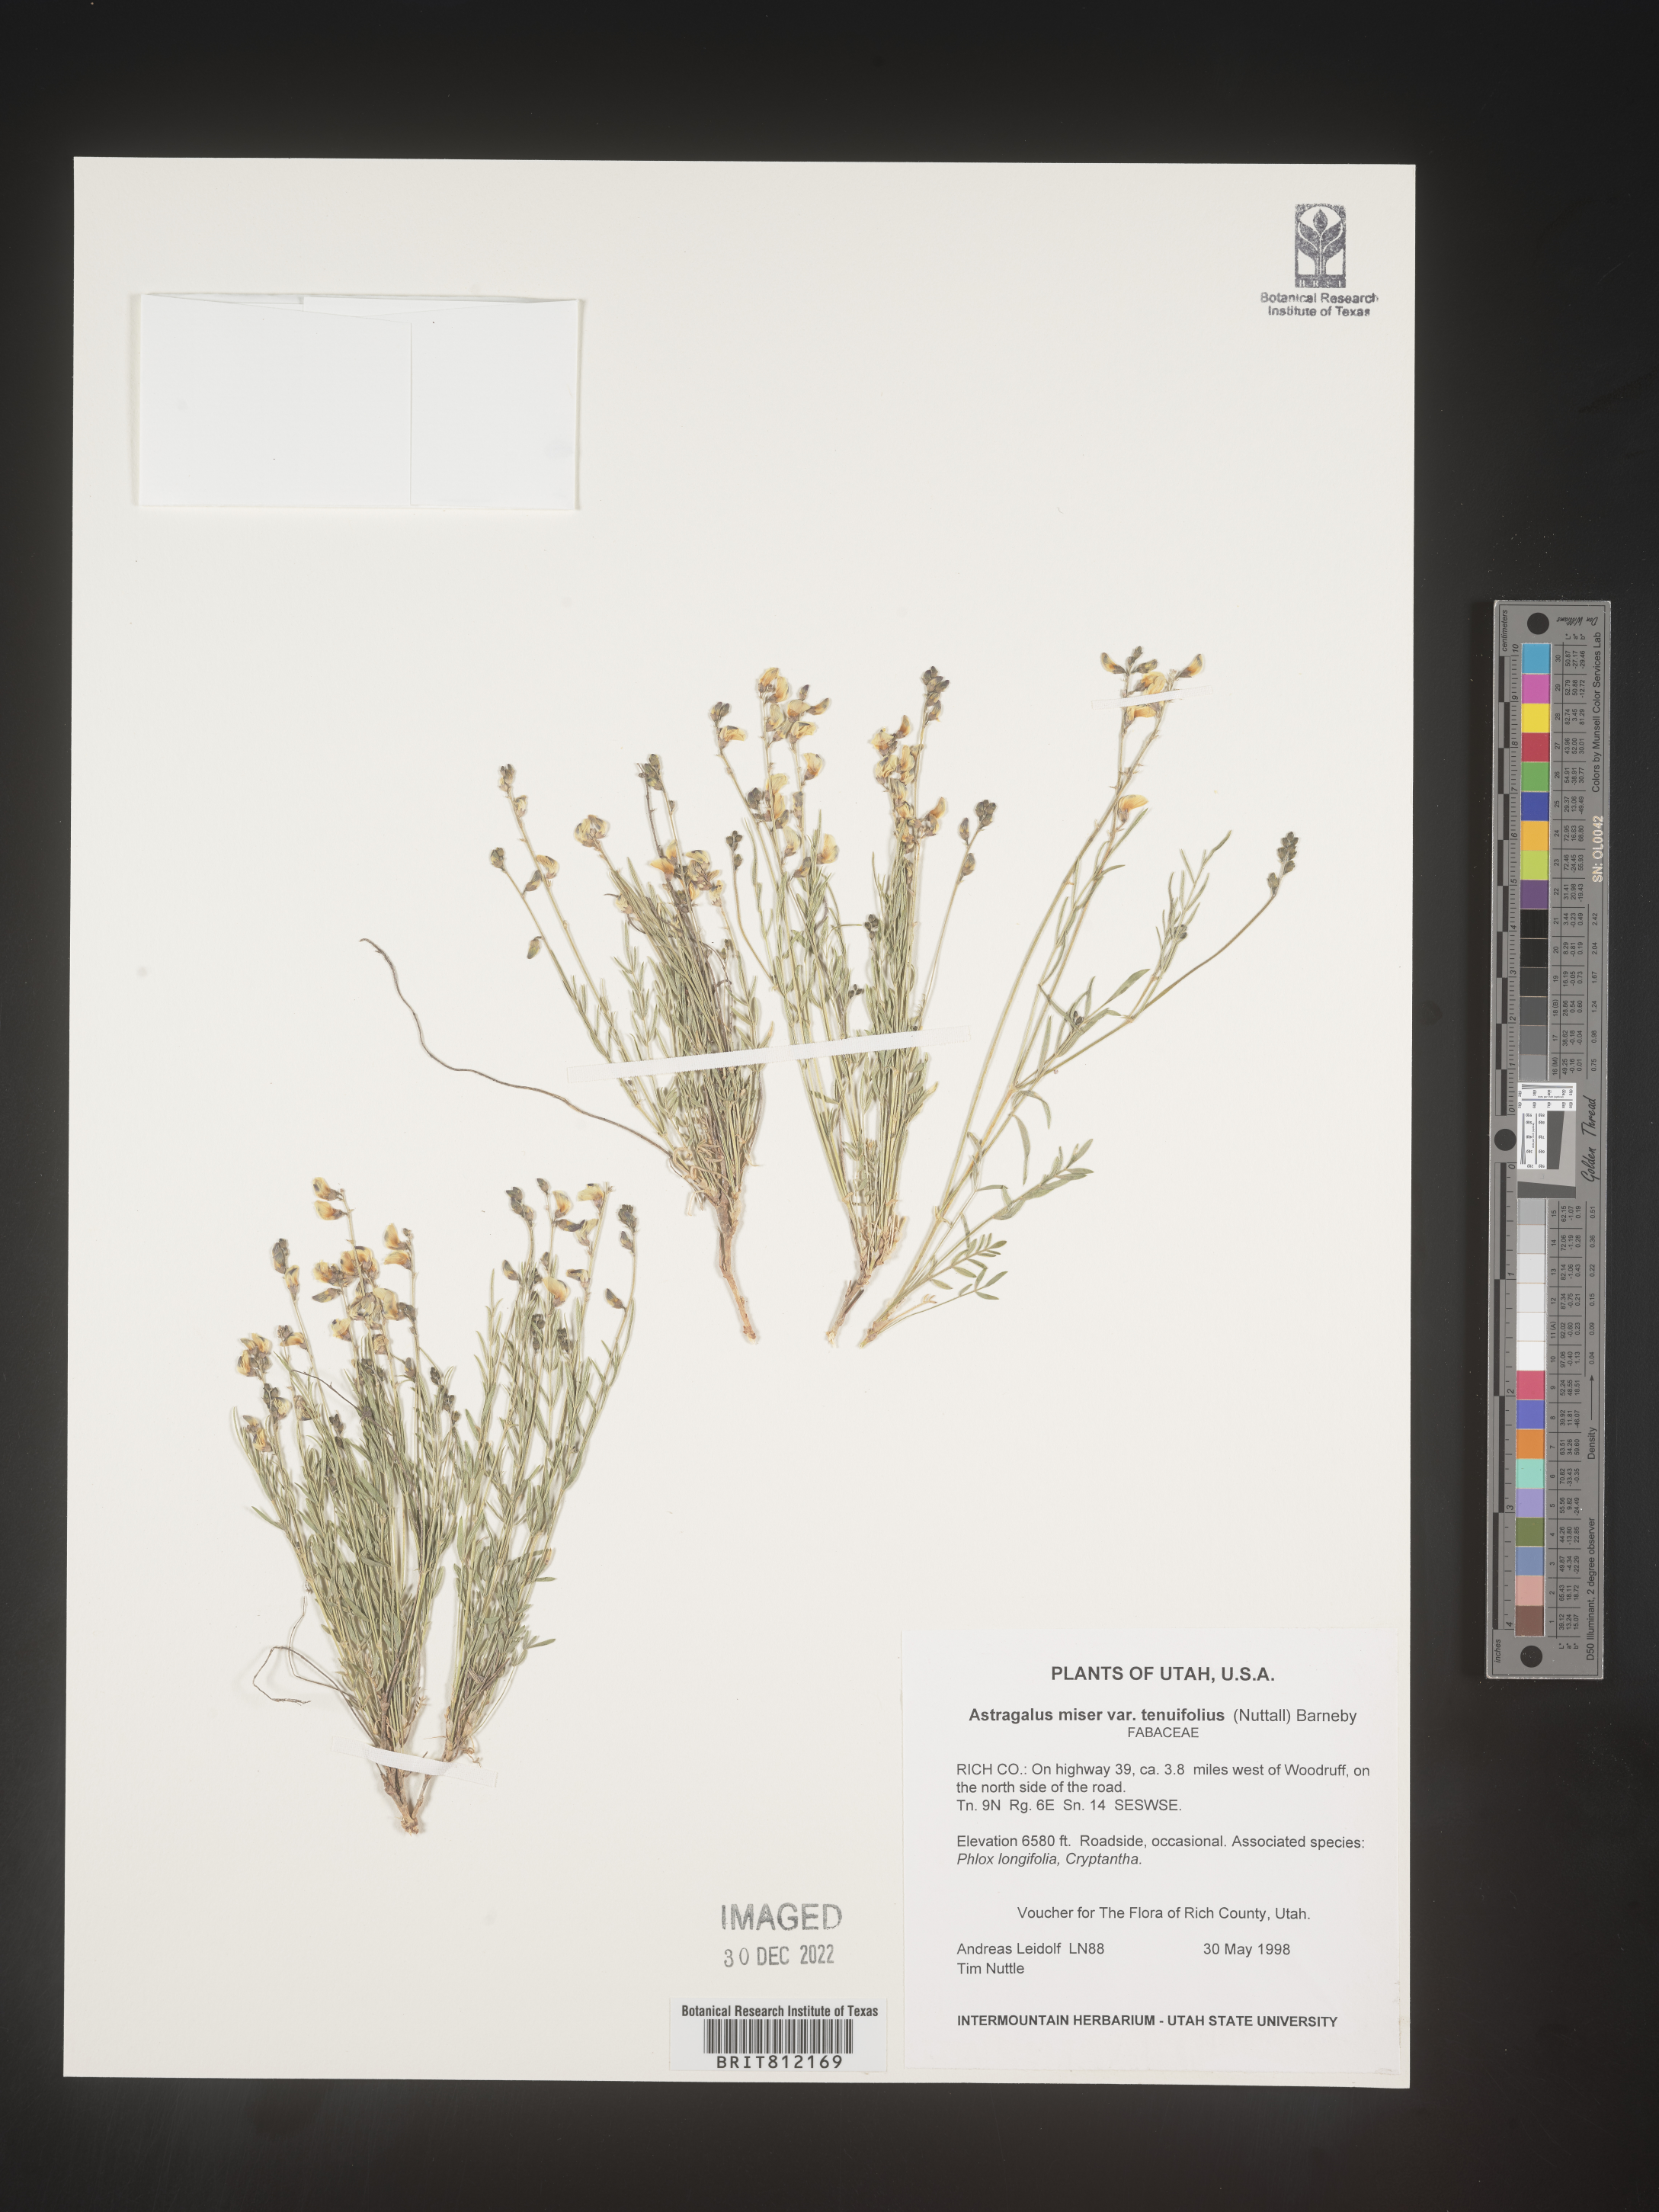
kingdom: Plantae
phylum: Tracheophyta
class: Magnoliopsida
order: Fabales
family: Fabaceae
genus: Astragalus
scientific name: Astragalus miser
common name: Timber milkvetch
